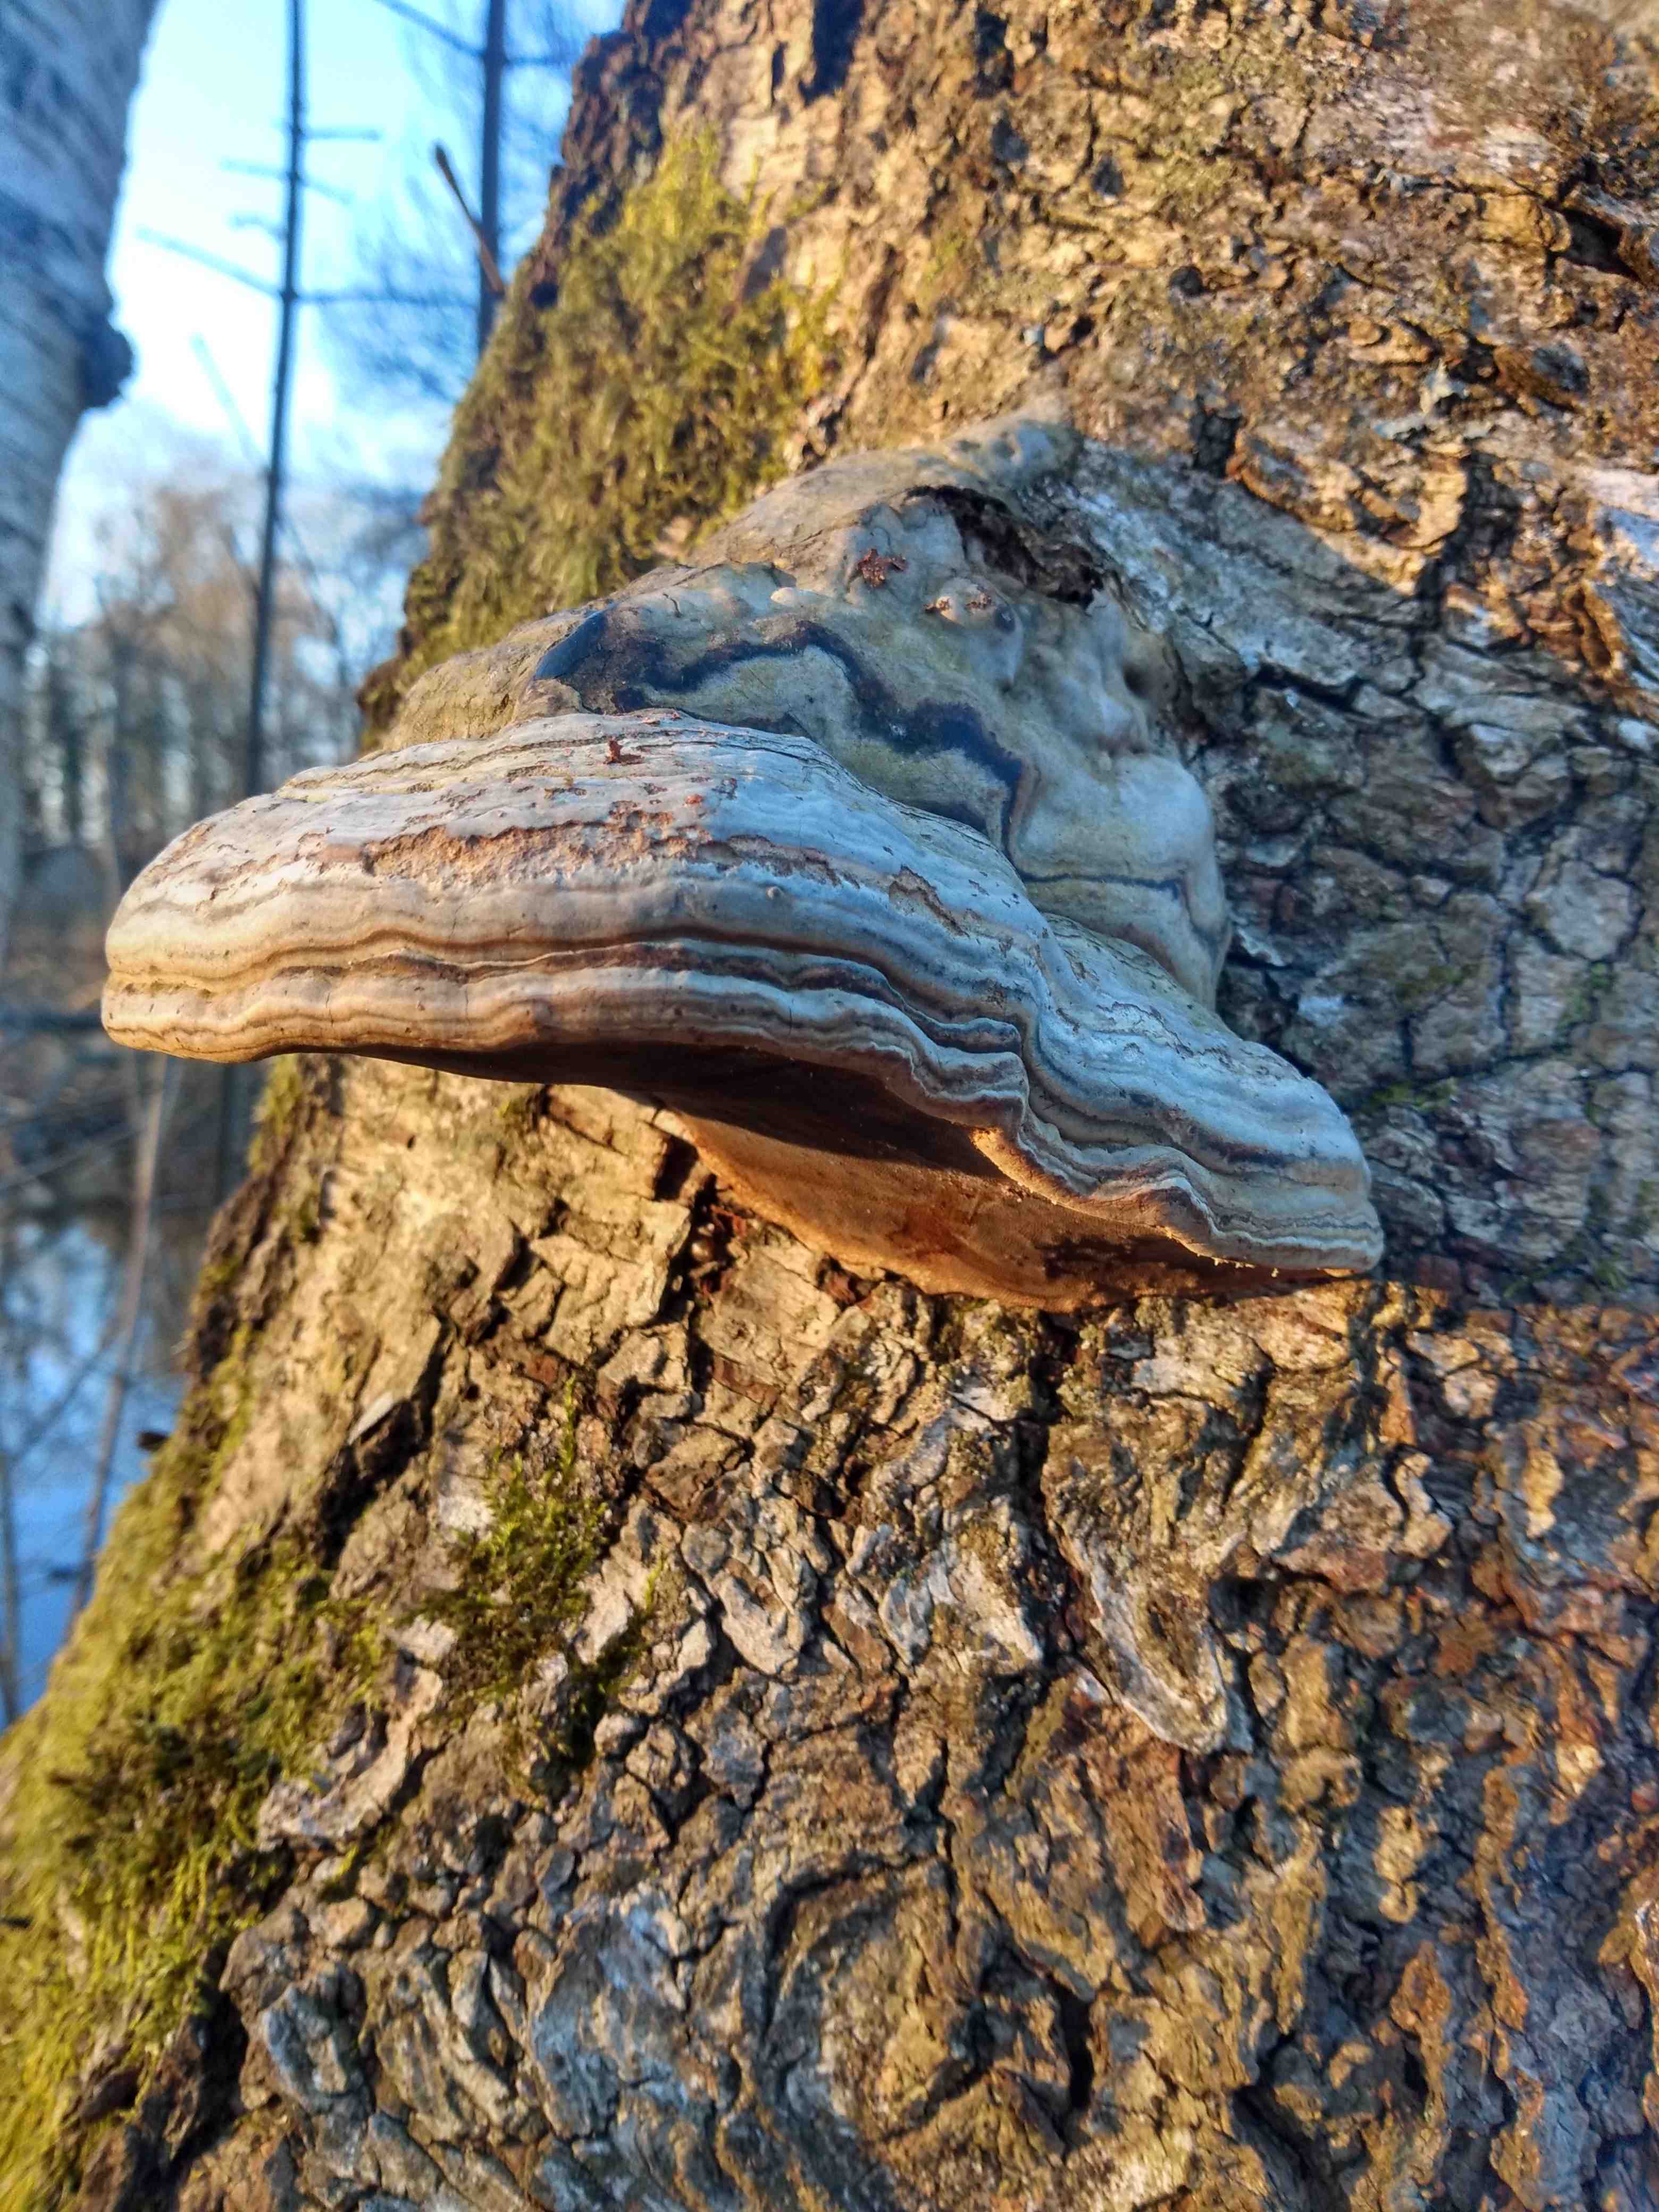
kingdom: Fungi
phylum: Basidiomycota
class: Agaricomycetes
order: Polyporales
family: Polyporaceae
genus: Fomes
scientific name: Fomes fomentarius
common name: tøndersvamp
